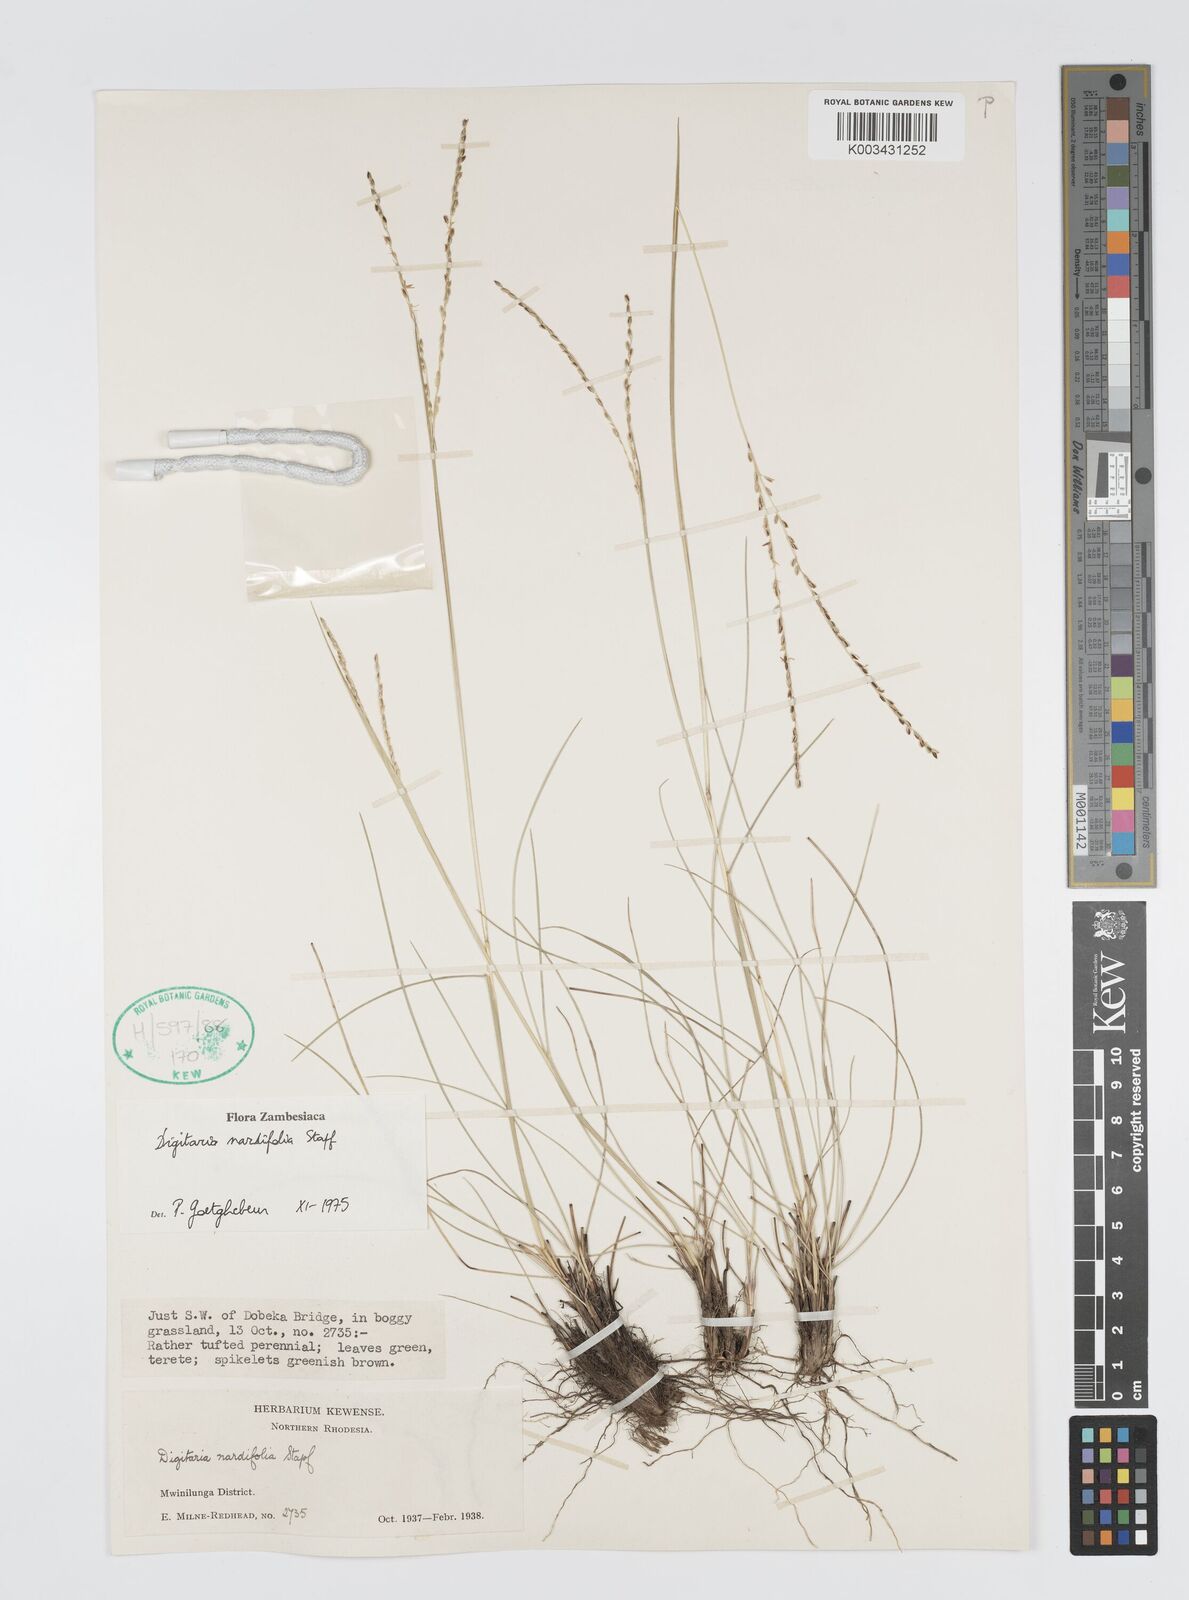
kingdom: Plantae
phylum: Tracheophyta
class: Liliopsida
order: Poales
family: Poaceae
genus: Digitaria
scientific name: Digitaria setifolia
